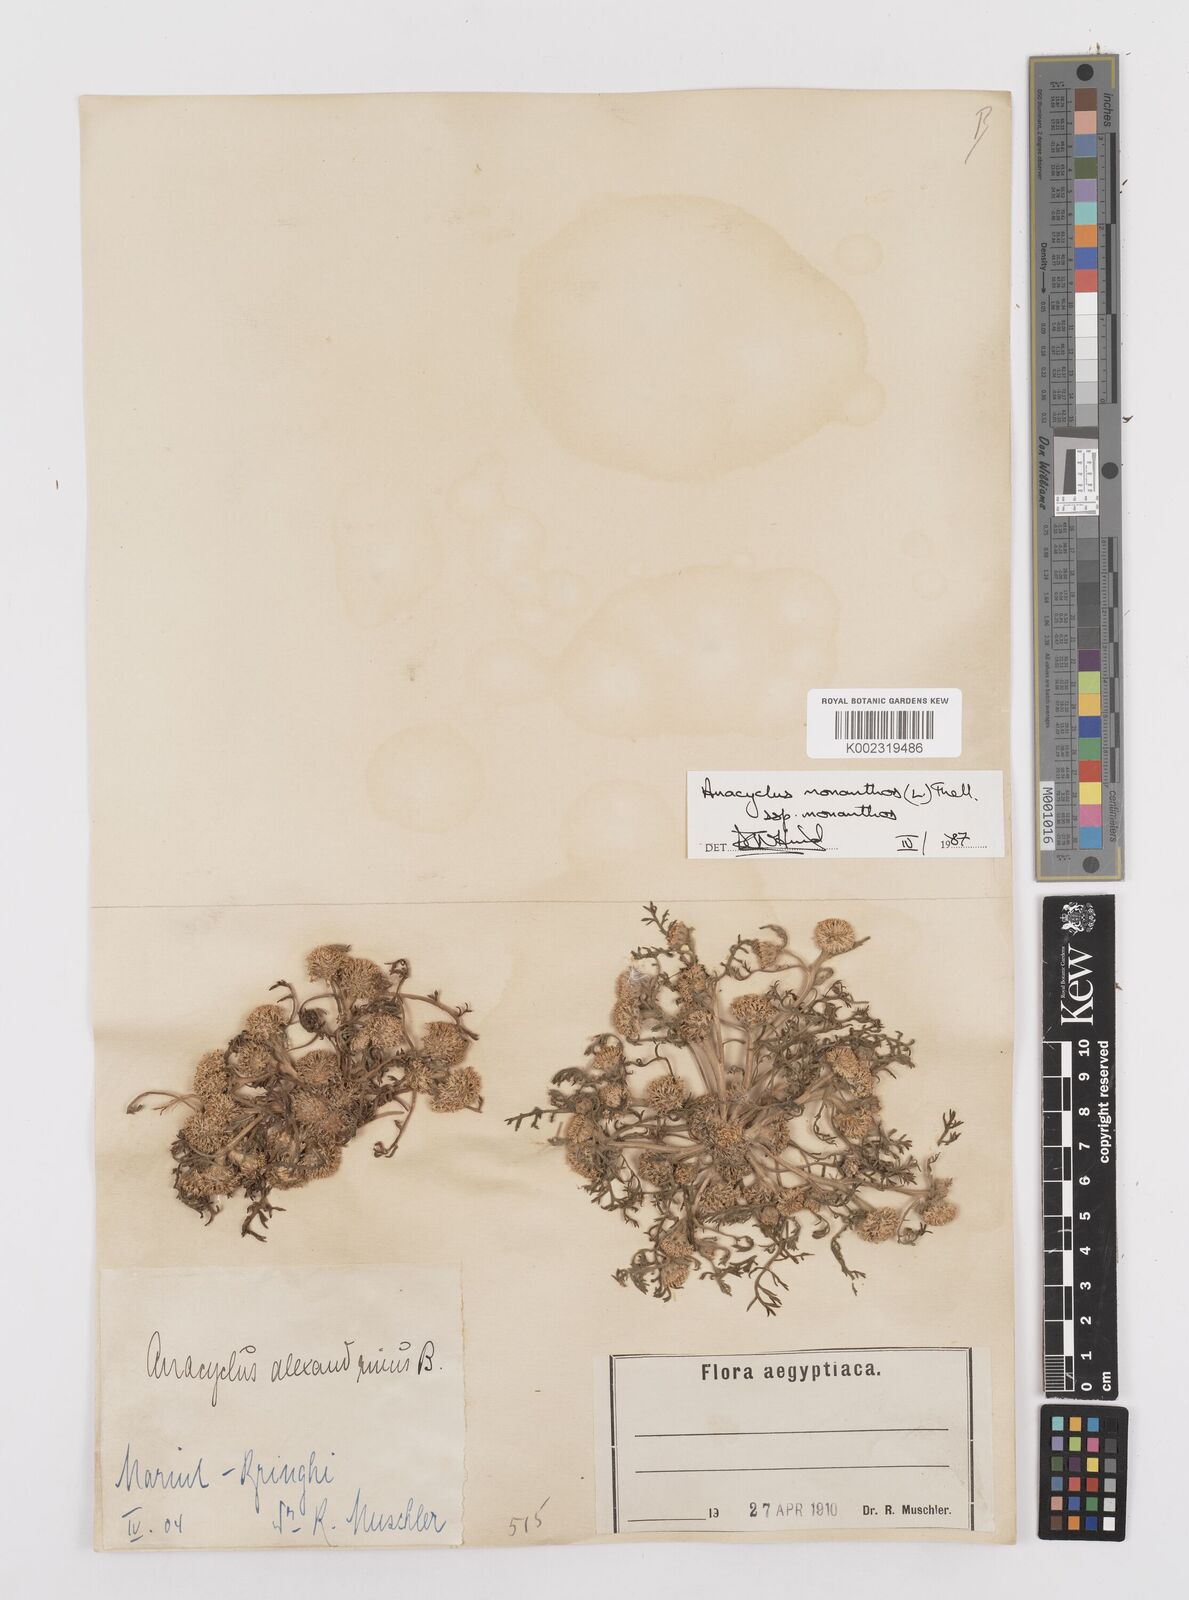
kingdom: Plantae
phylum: Tracheophyta
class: Magnoliopsida
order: Asterales
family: Asteraceae
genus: Anacyclus
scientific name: Anacyclus monanthos
